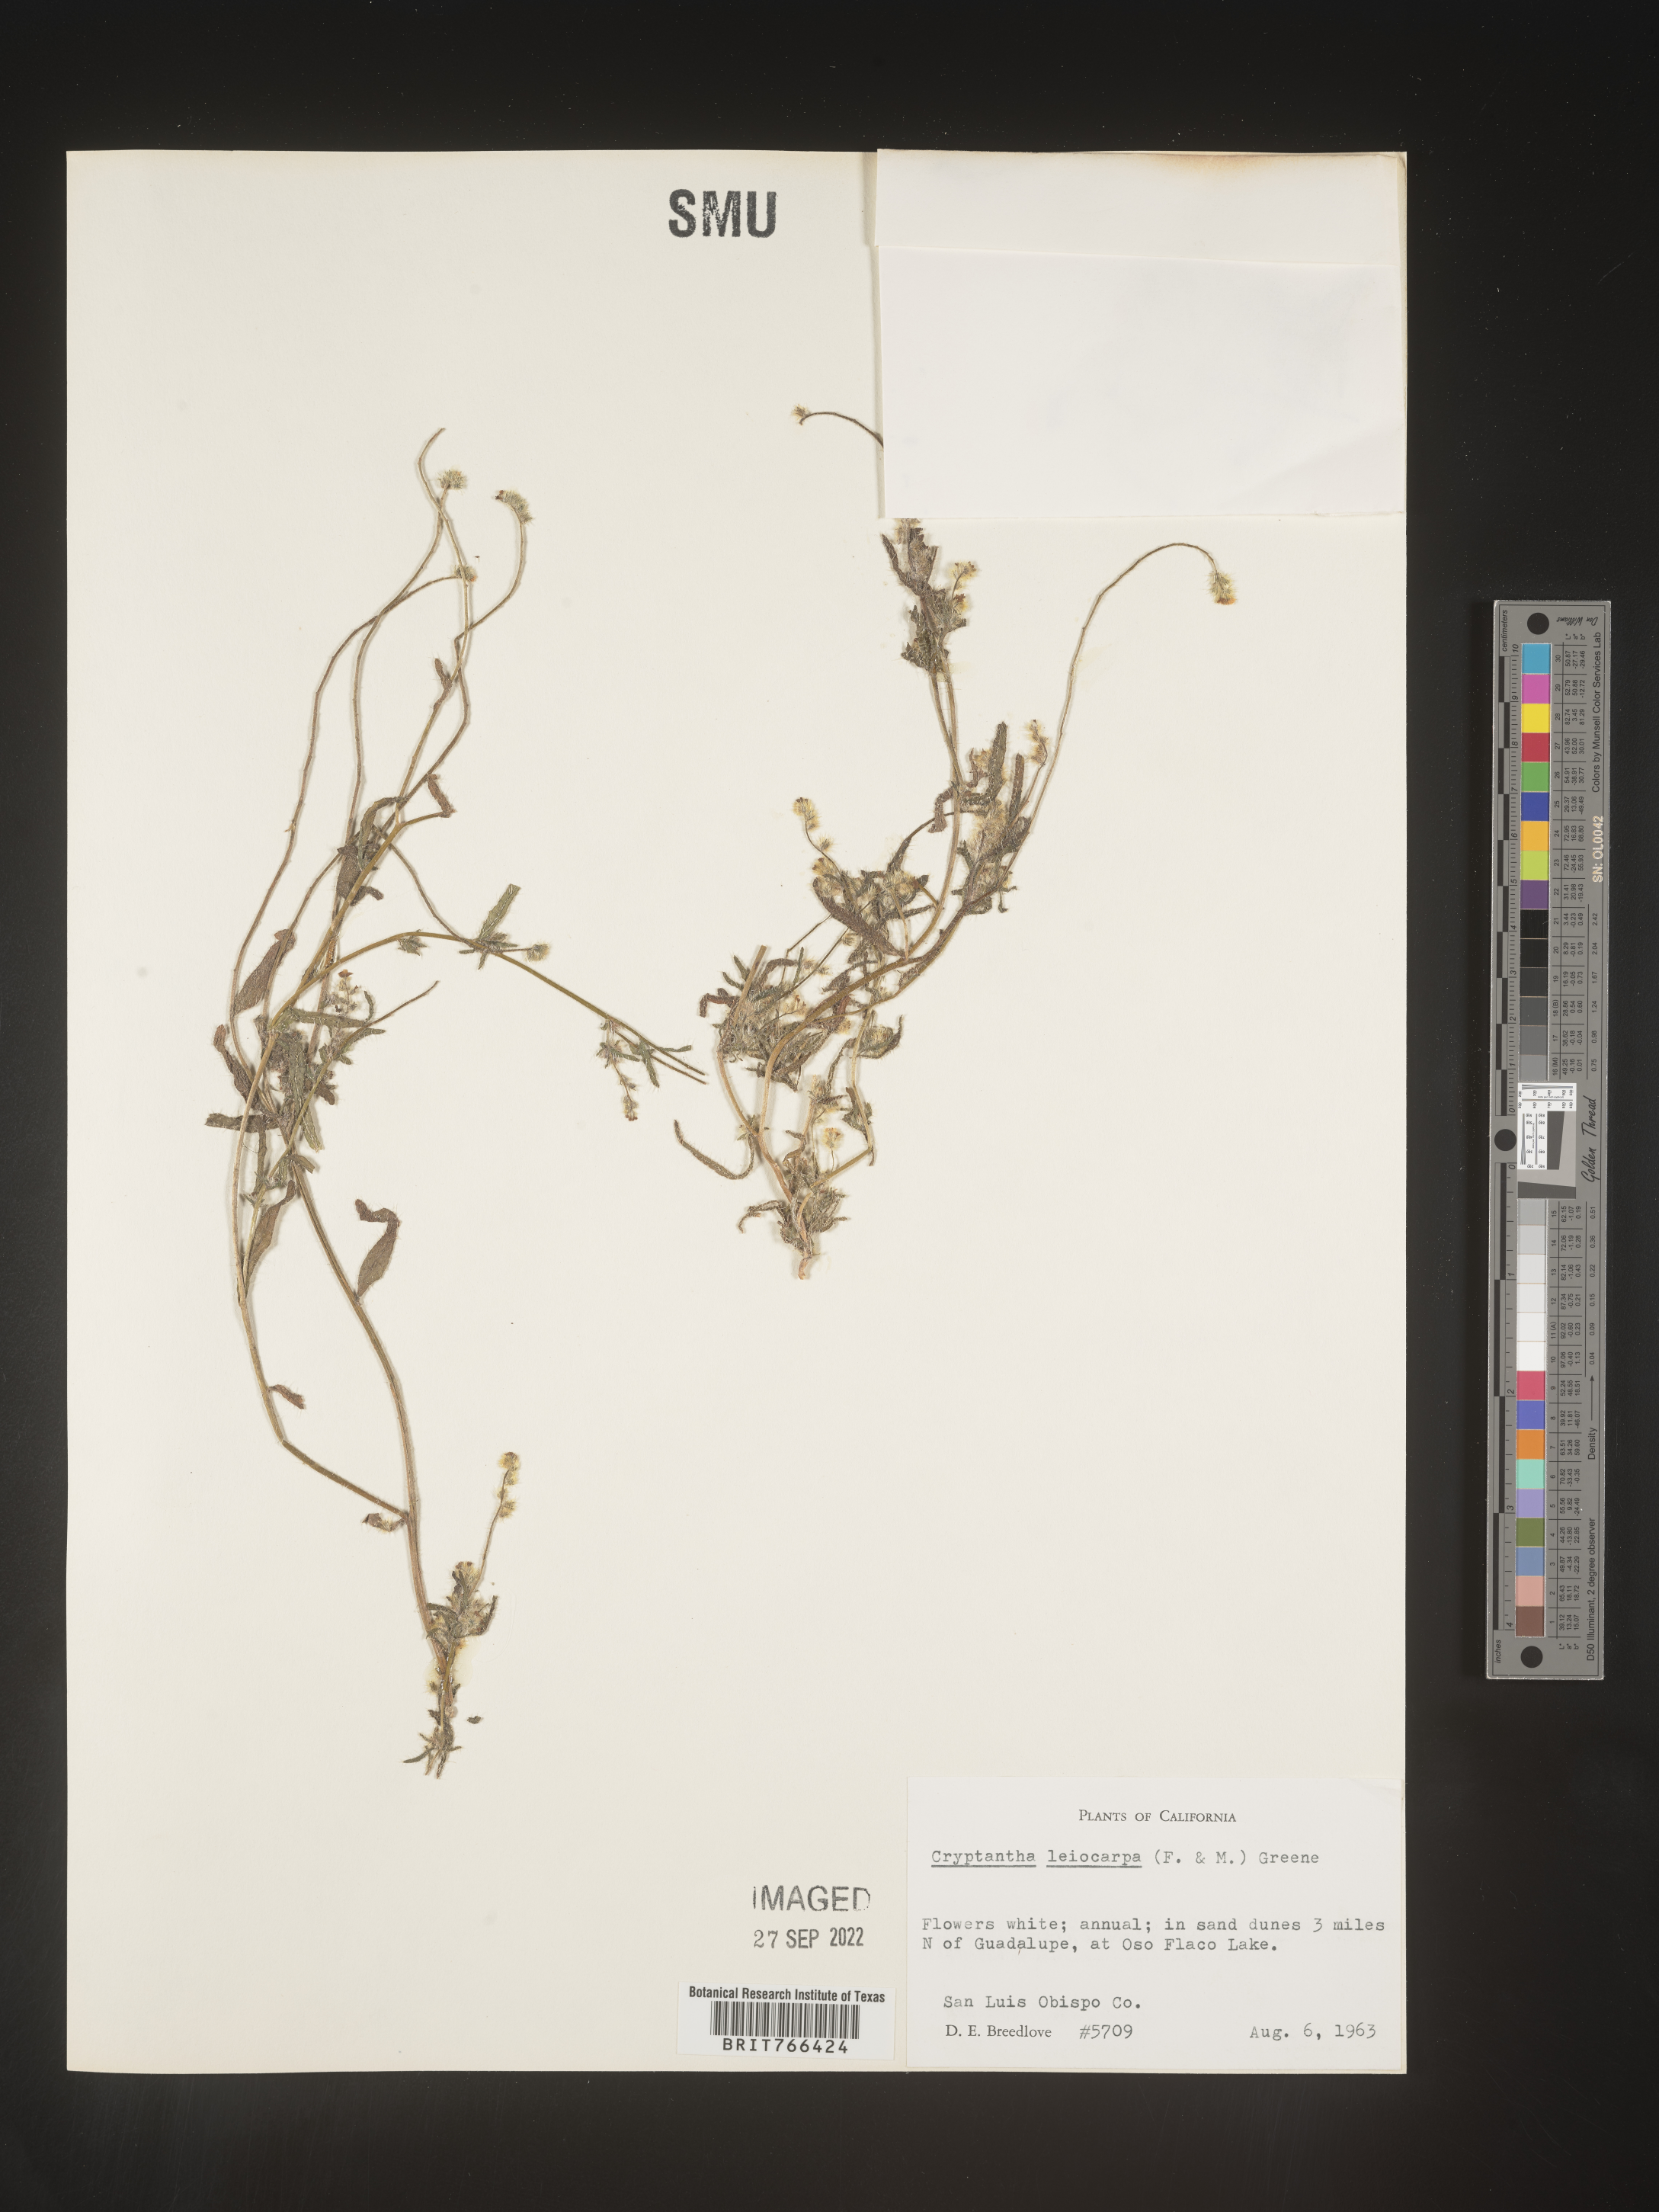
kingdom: Plantae
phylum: Tracheophyta
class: Magnoliopsida
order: Boraginales
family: Boraginaceae
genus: Cryptantha
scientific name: Cryptantha
